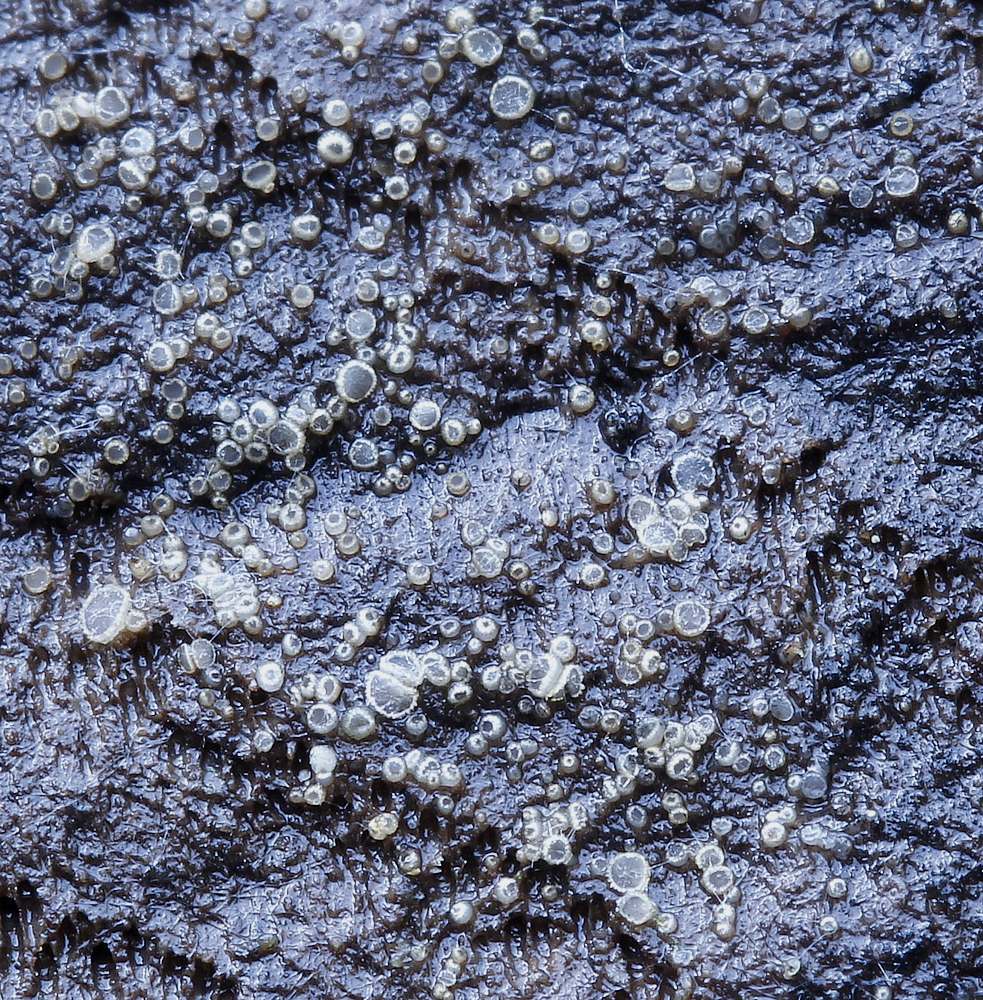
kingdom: Fungi
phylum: Ascomycota
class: Leotiomycetes
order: Helotiales
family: Hyaloscyphaceae
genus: Protounguicularia
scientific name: Protounguicularia transiens
